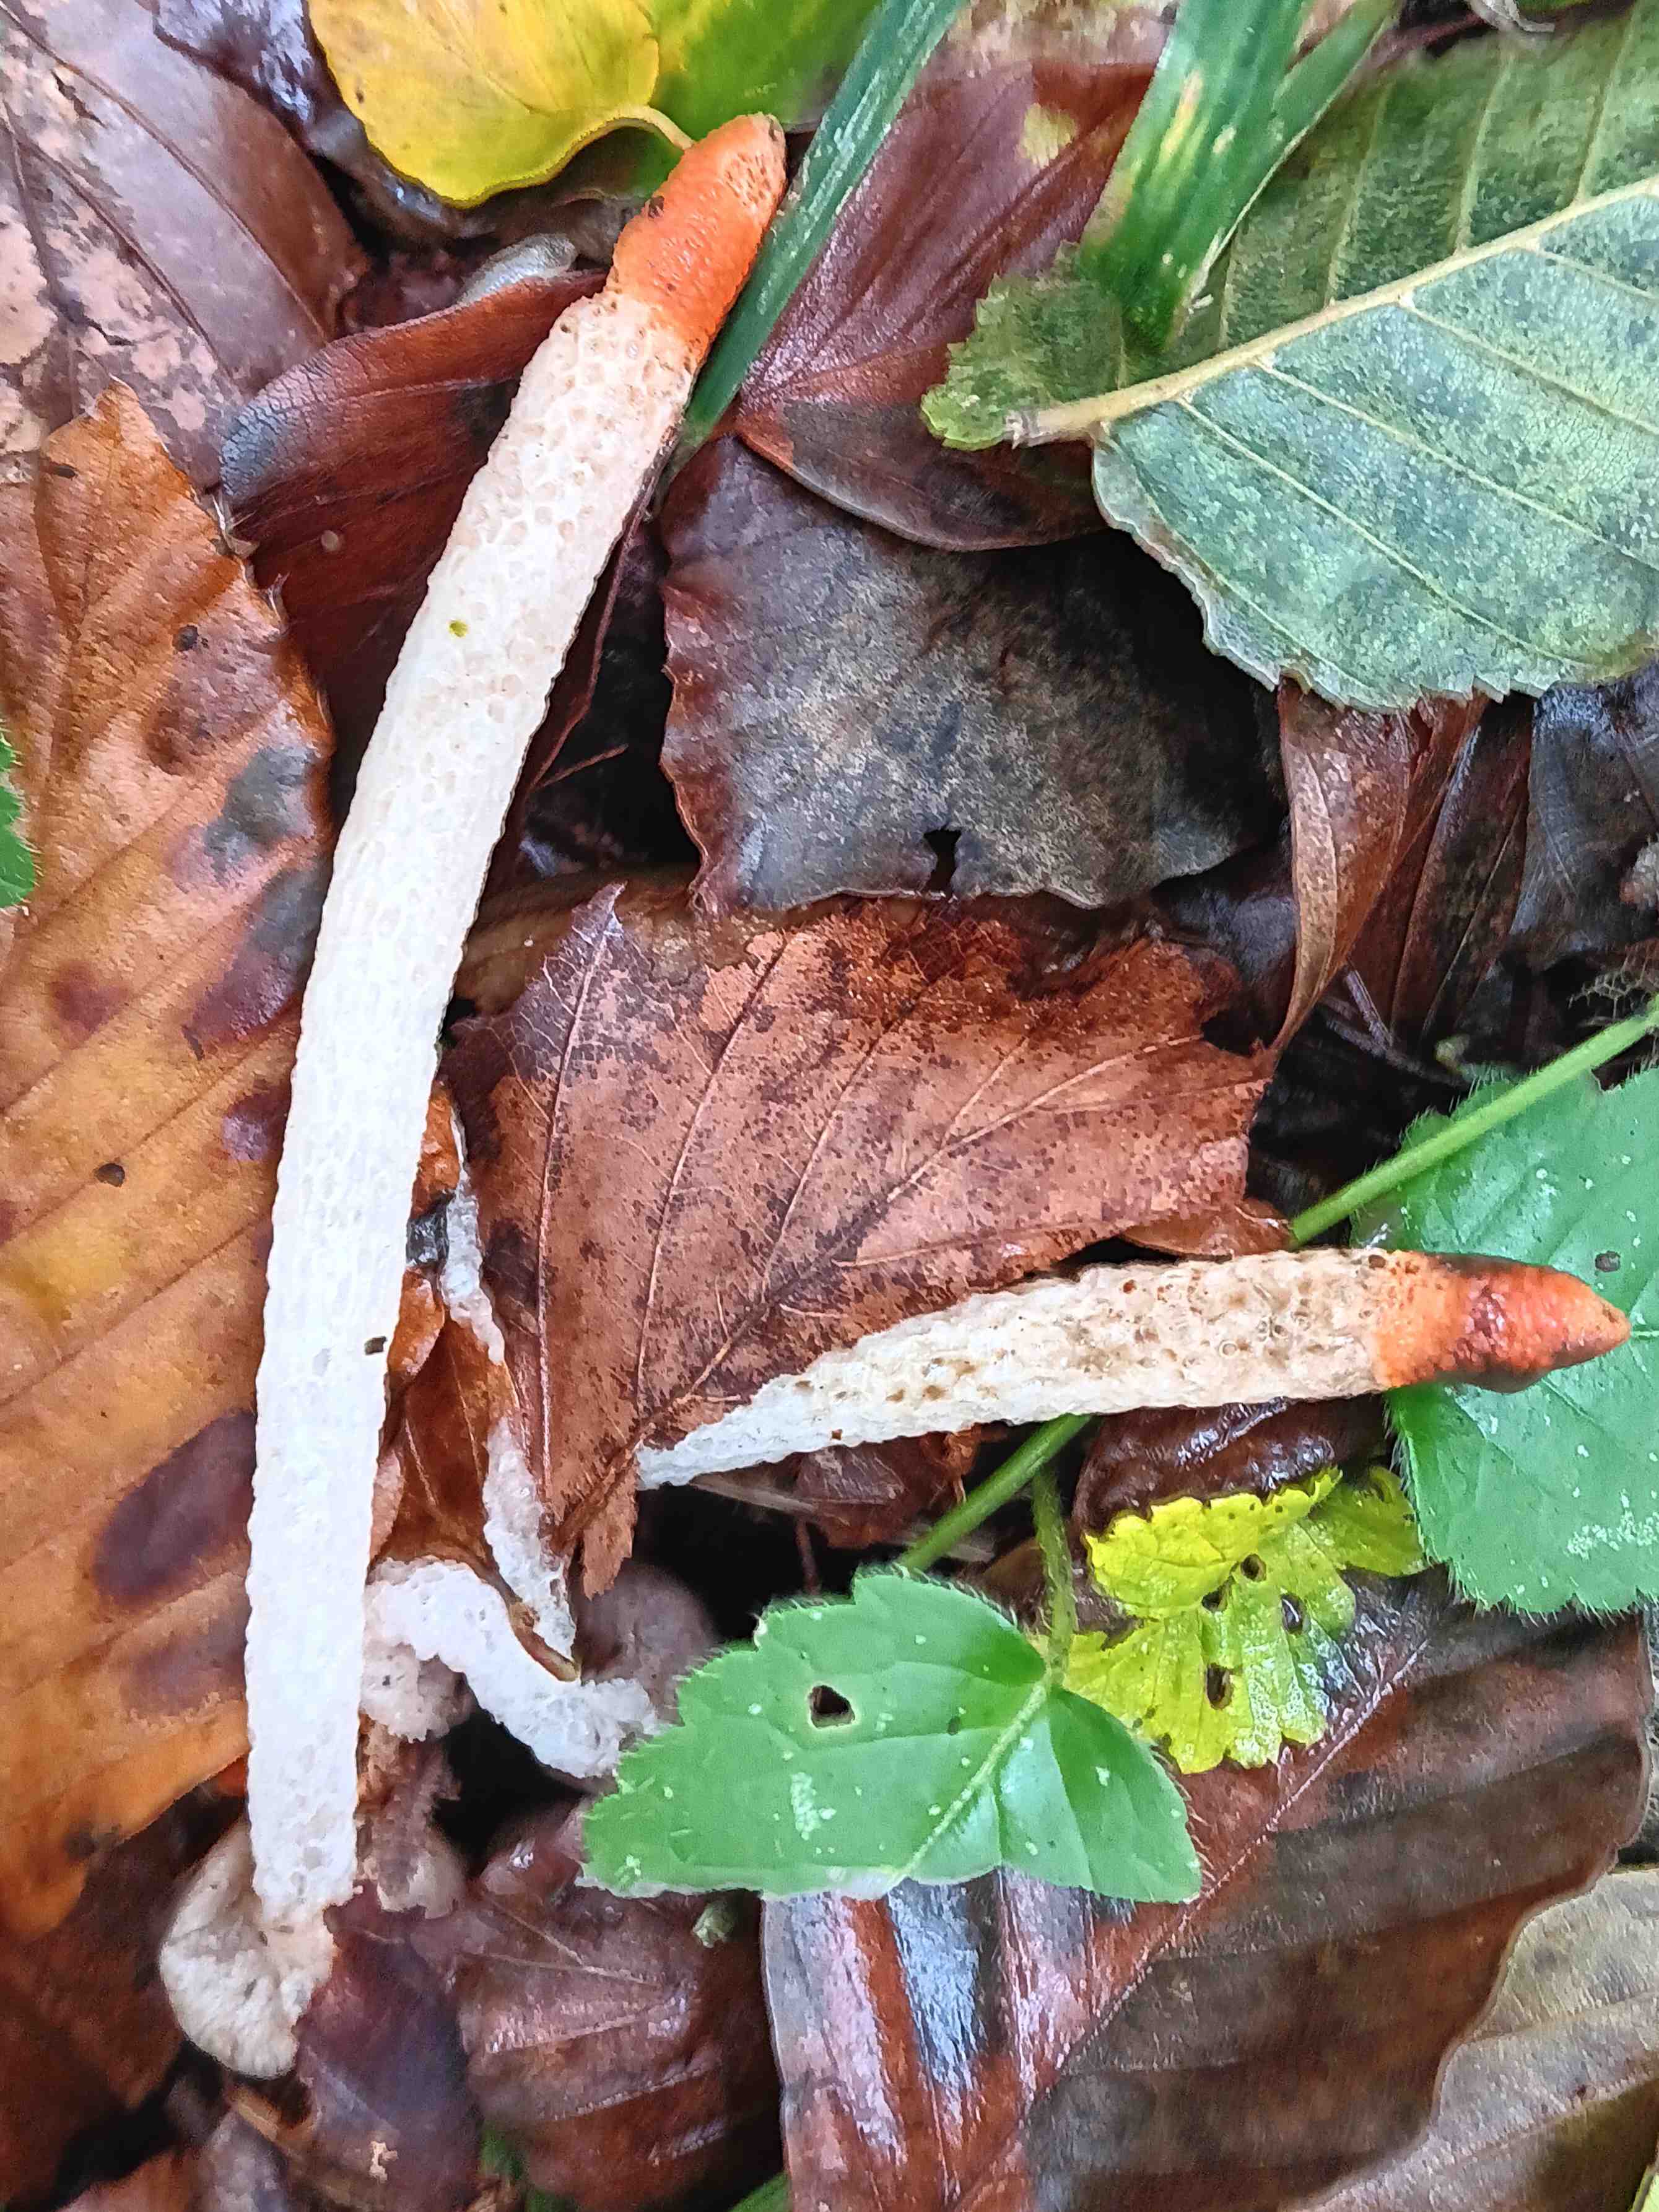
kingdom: Fungi
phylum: Basidiomycota
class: Agaricomycetes
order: Phallales
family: Phallaceae
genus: Mutinus
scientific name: Mutinus caninus
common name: hunde-stinksvamp
